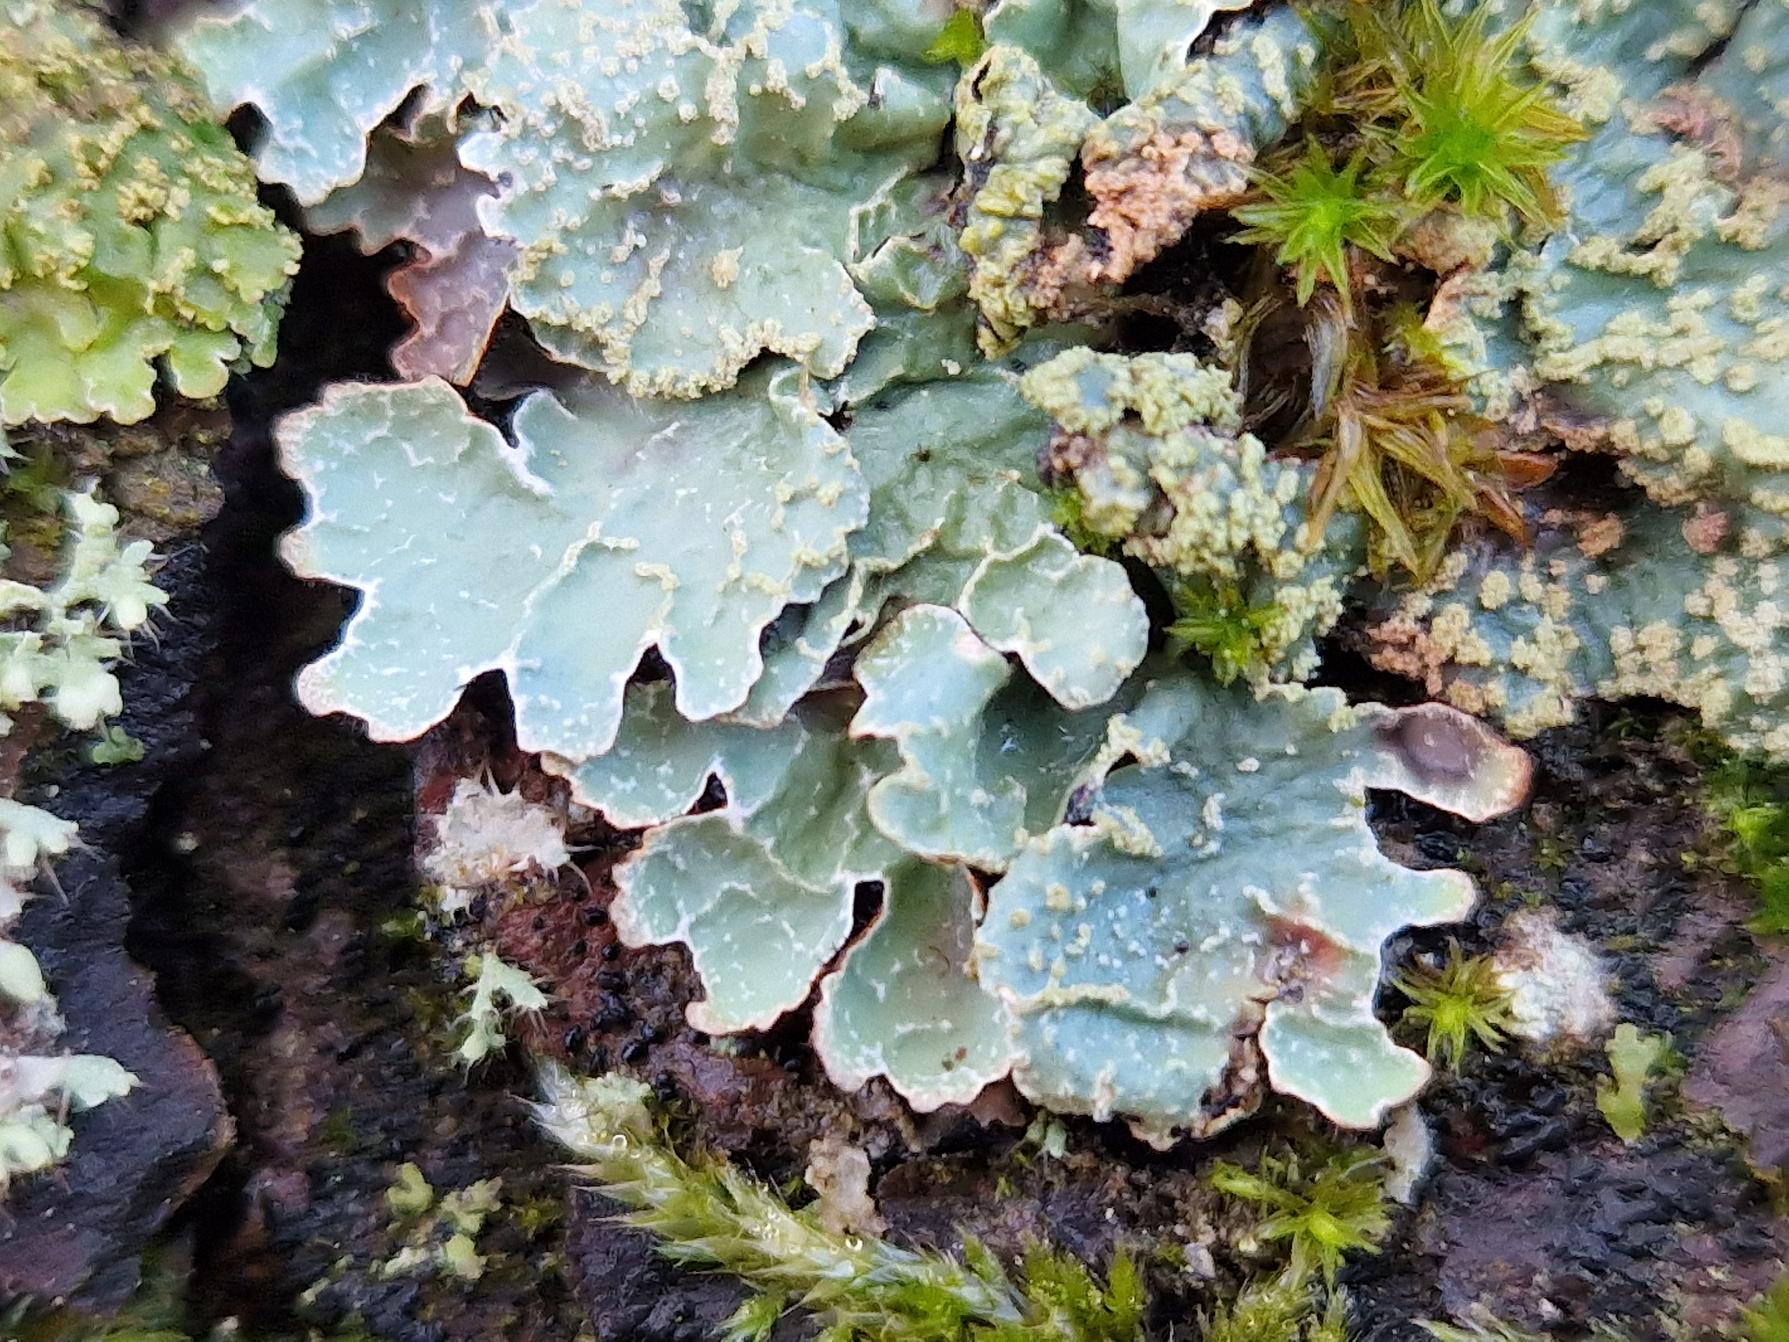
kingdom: Fungi
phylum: Ascomycota
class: Lecanoromycetes
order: Lecanorales
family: Parmeliaceae
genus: Parmelia
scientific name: Parmelia sulcata
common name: Rynket skållav
